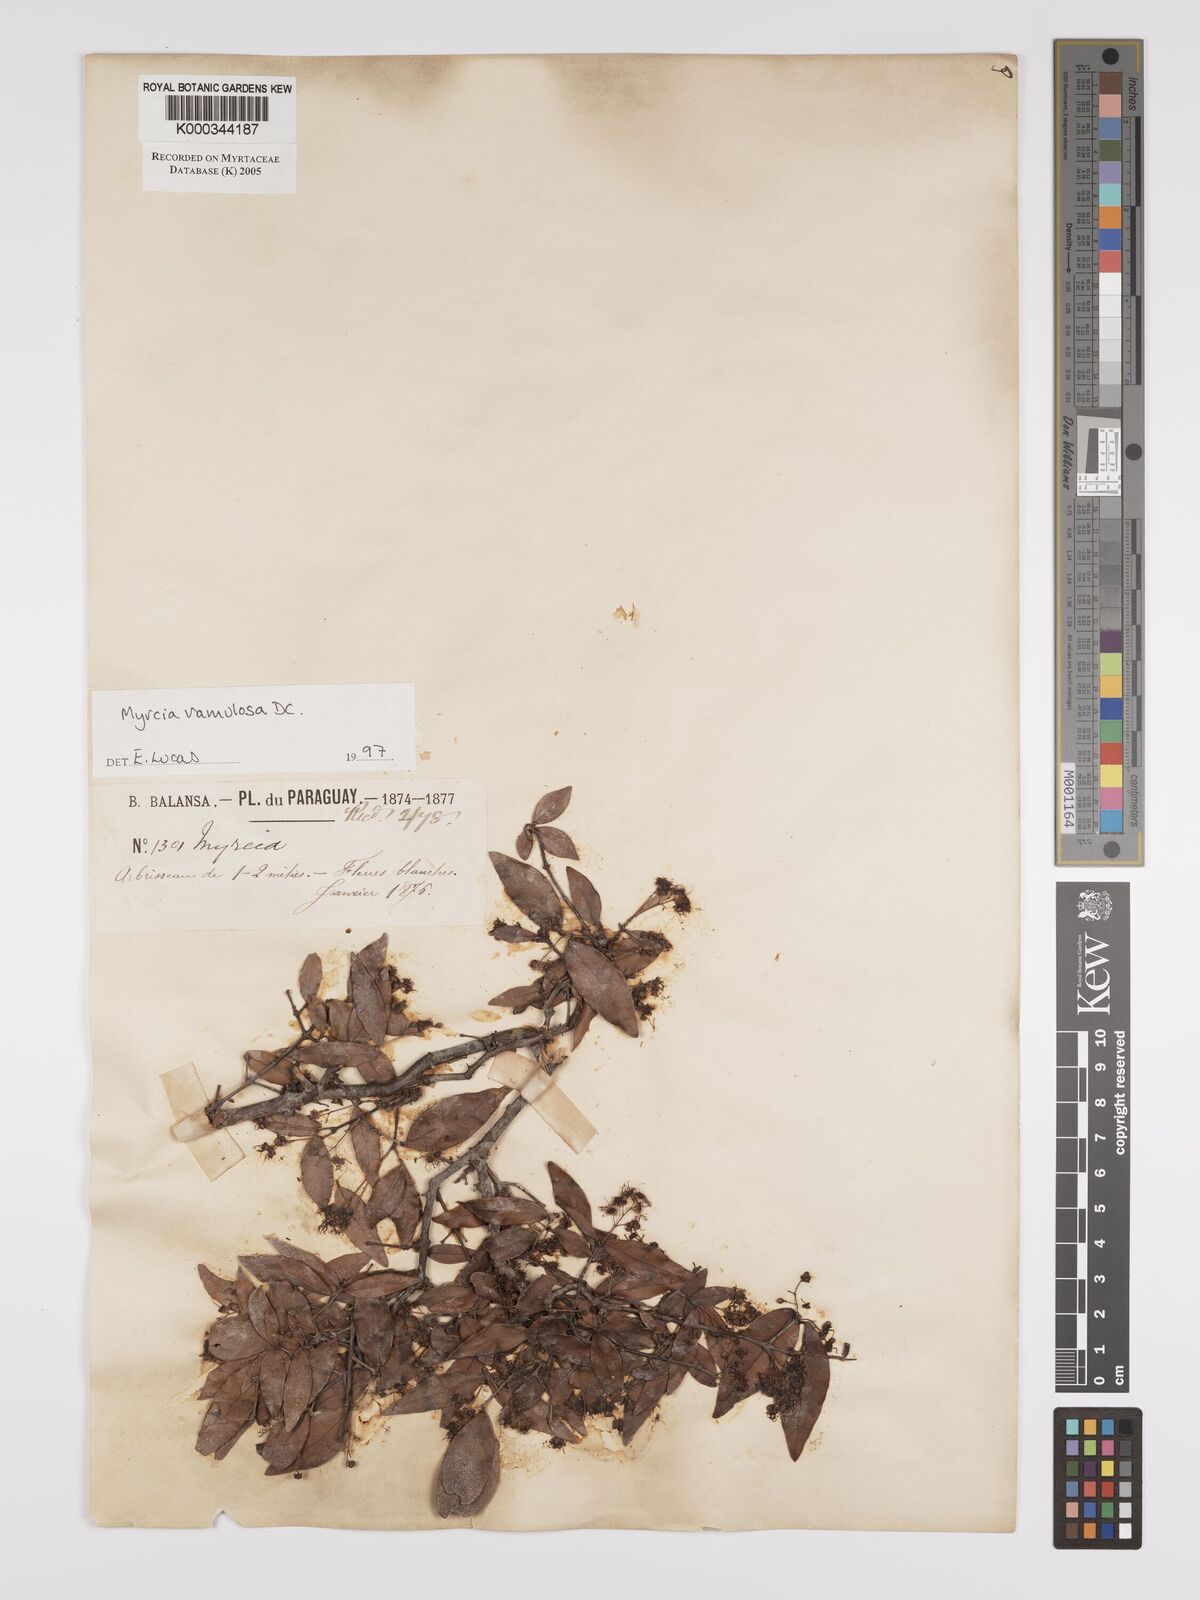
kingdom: Plantae
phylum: Tracheophyta
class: Magnoliopsida
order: Myrtales
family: Myrtaceae
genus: Myrcia
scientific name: Myrcia selloi
